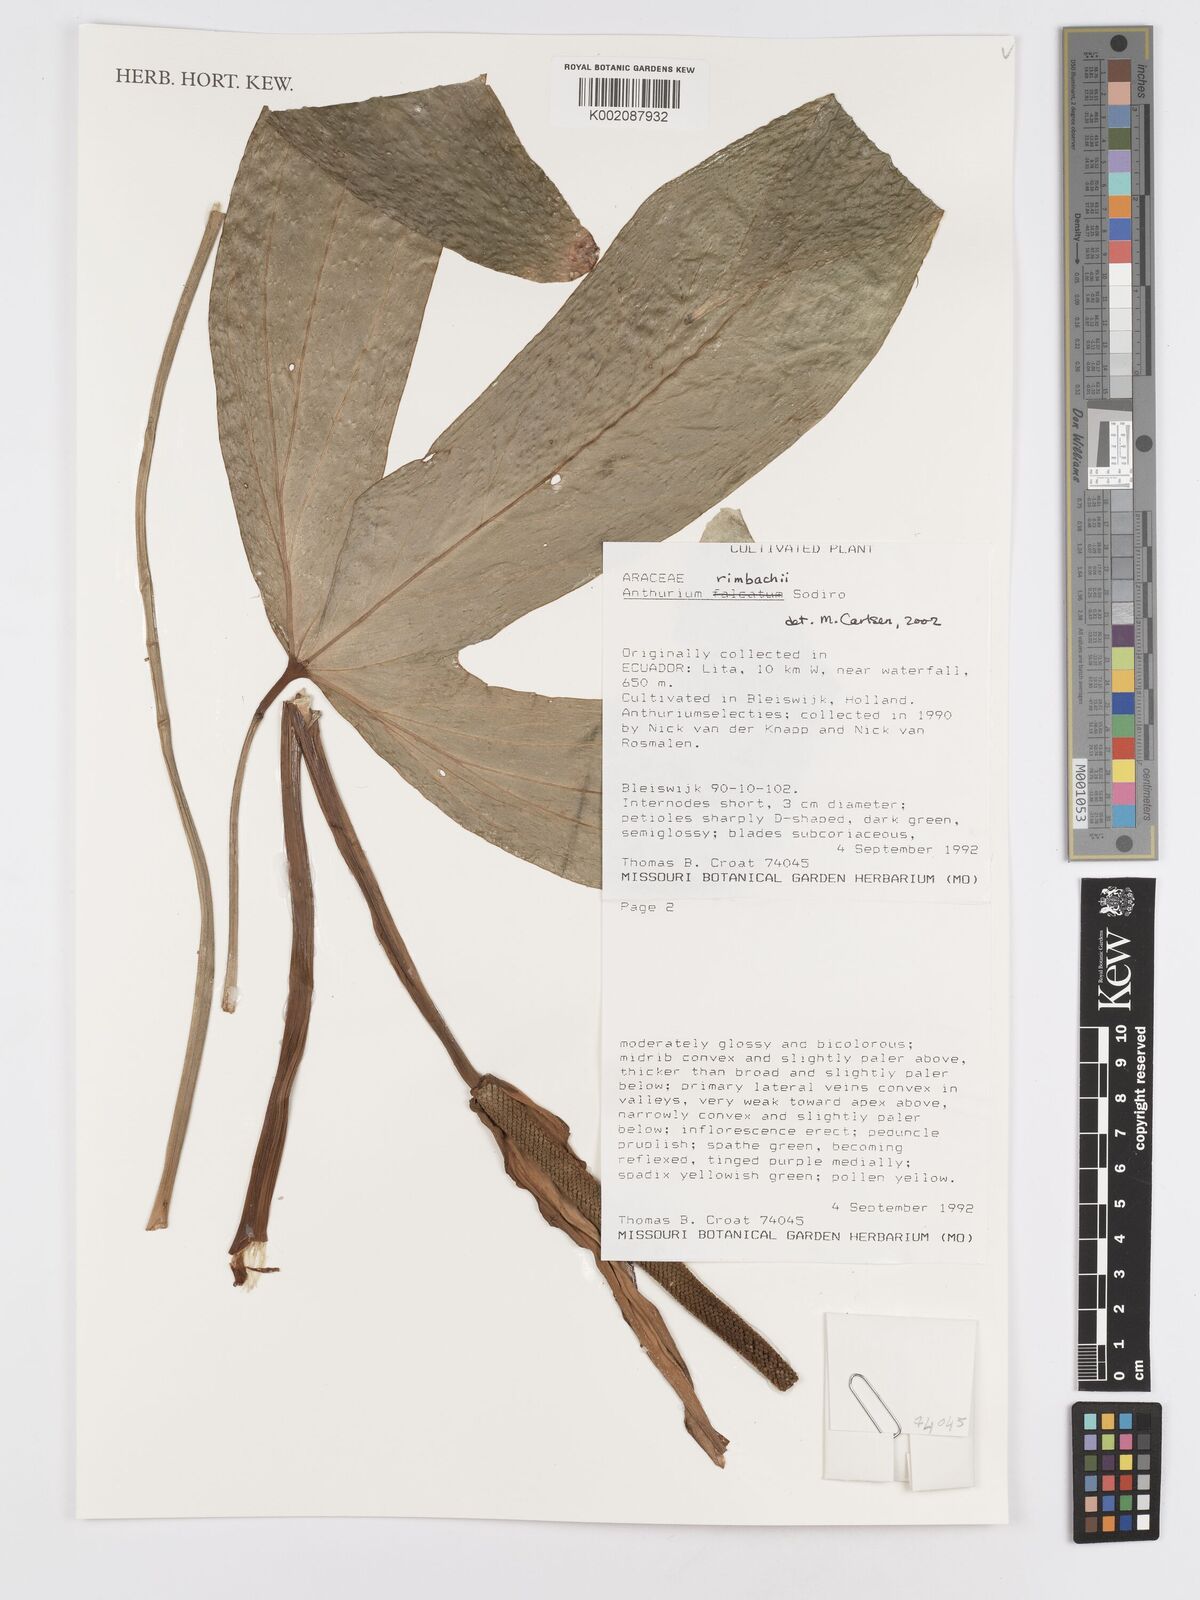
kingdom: Plantae
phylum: Tracheophyta
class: Liliopsida
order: Alismatales
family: Araceae
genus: Anthurium
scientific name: Anthurium rimbachii
